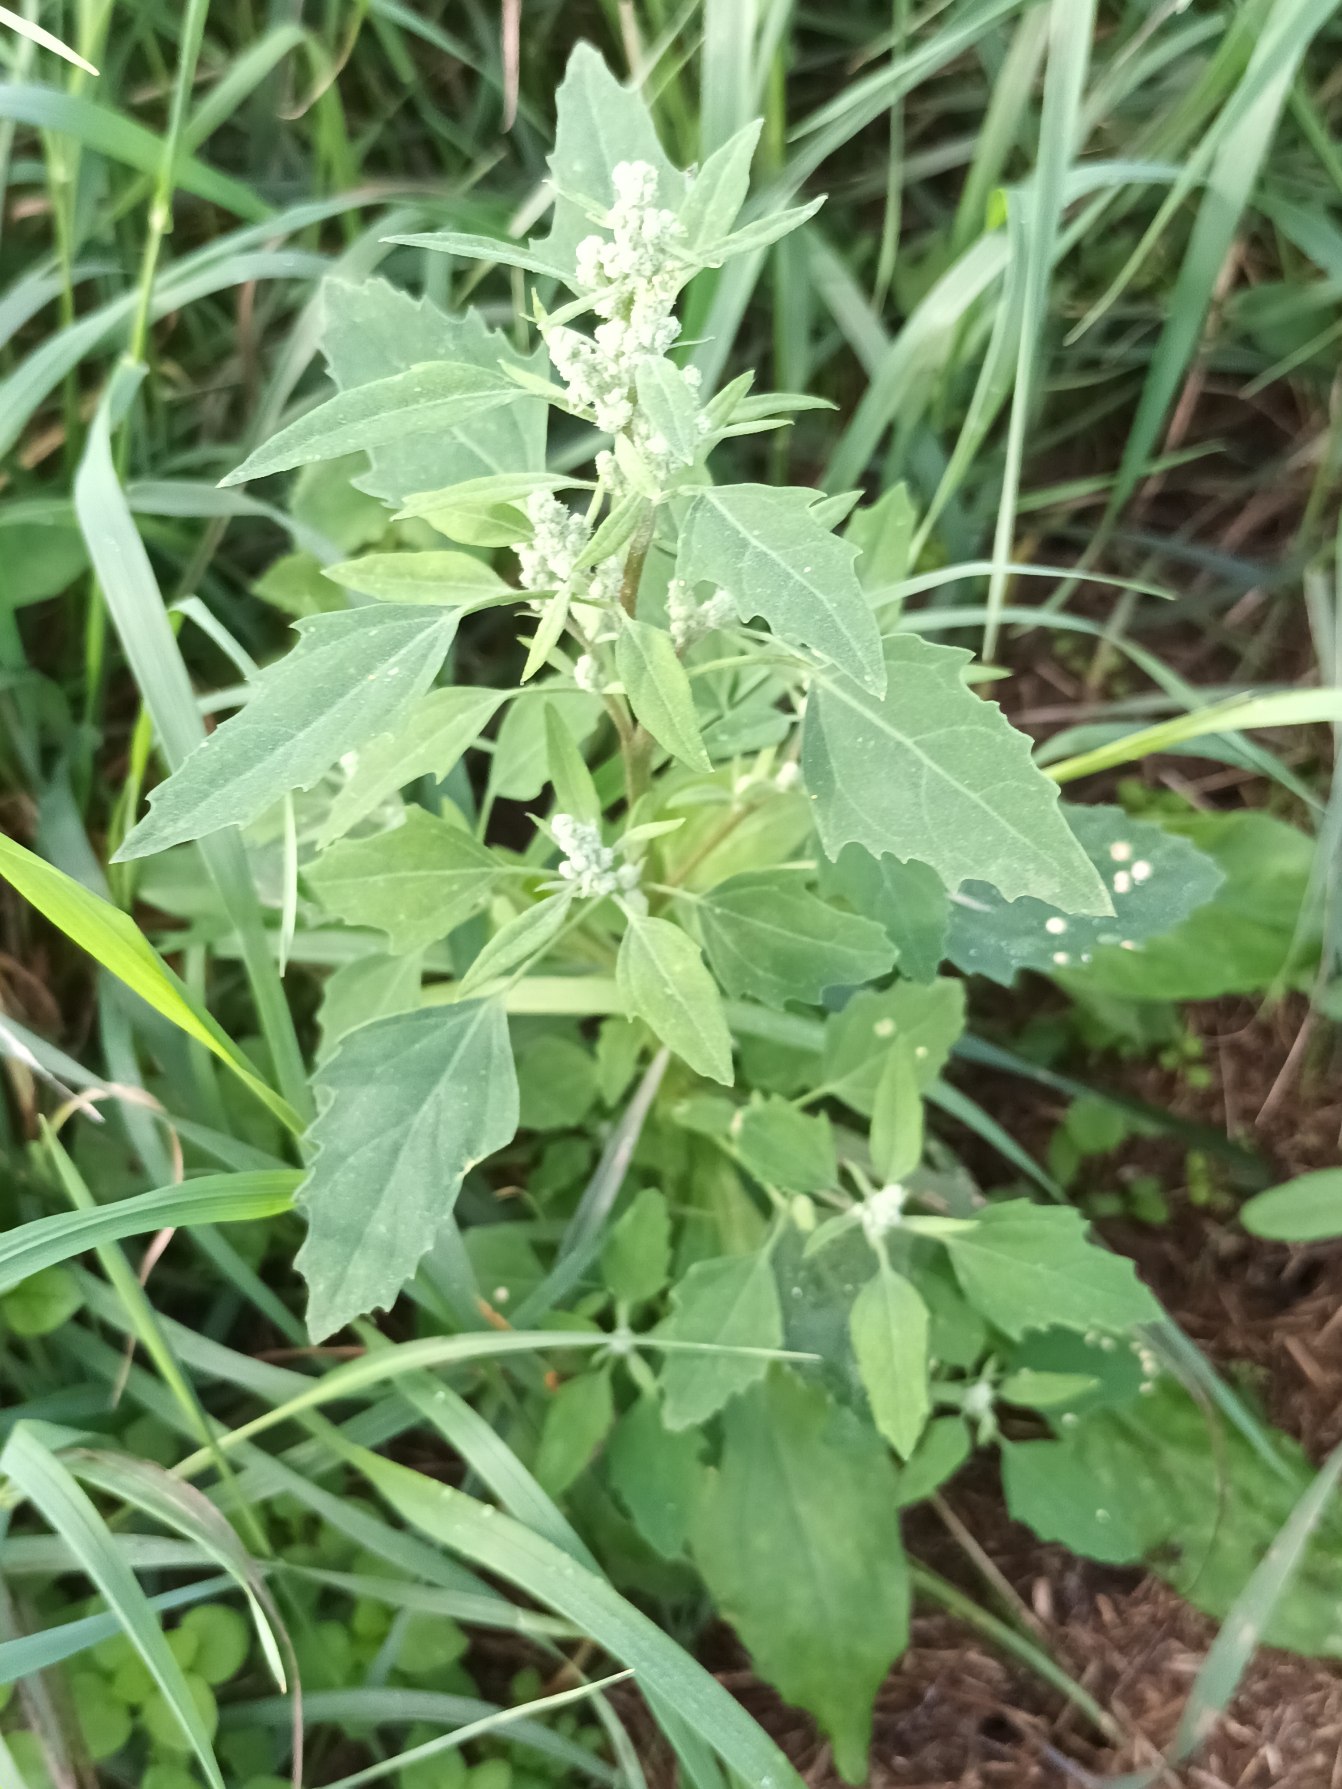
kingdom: Plantae
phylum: Tracheophyta
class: Magnoliopsida
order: Caryophyllales
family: Amaranthaceae
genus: Chenopodium
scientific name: Chenopodium album
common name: Hvidmelet gåsefod
